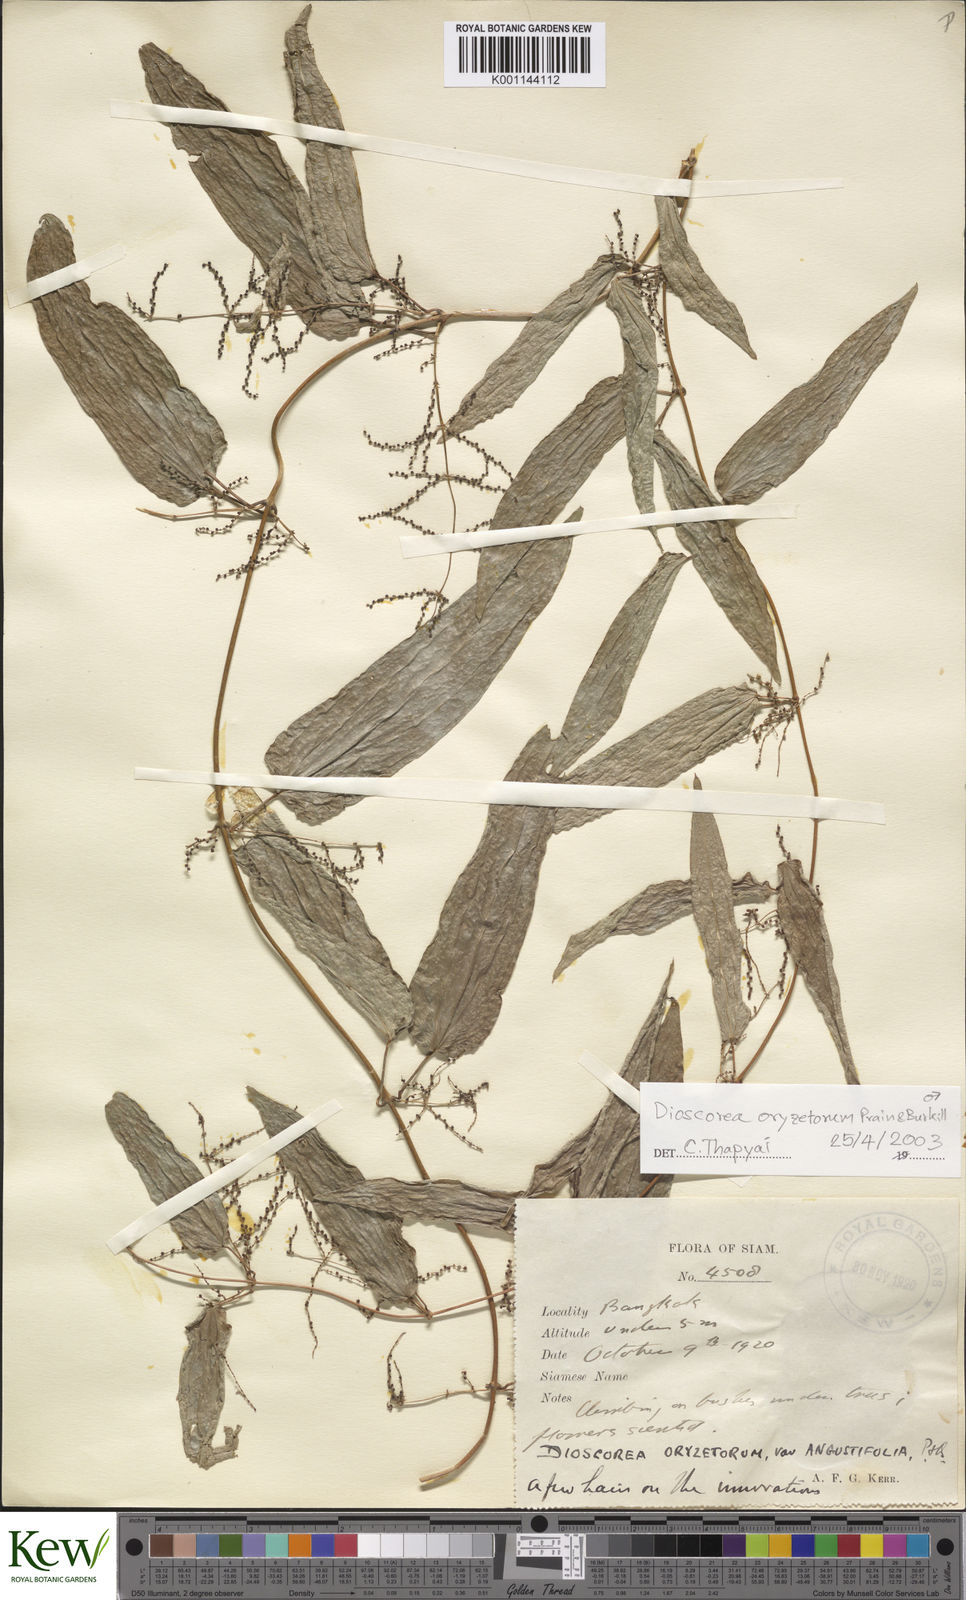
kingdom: Plantae
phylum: Tracheophyta
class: Liliopsida
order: Dioscoreales
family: Dioscoreaceae
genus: Dioscorea
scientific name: Dioscorea
